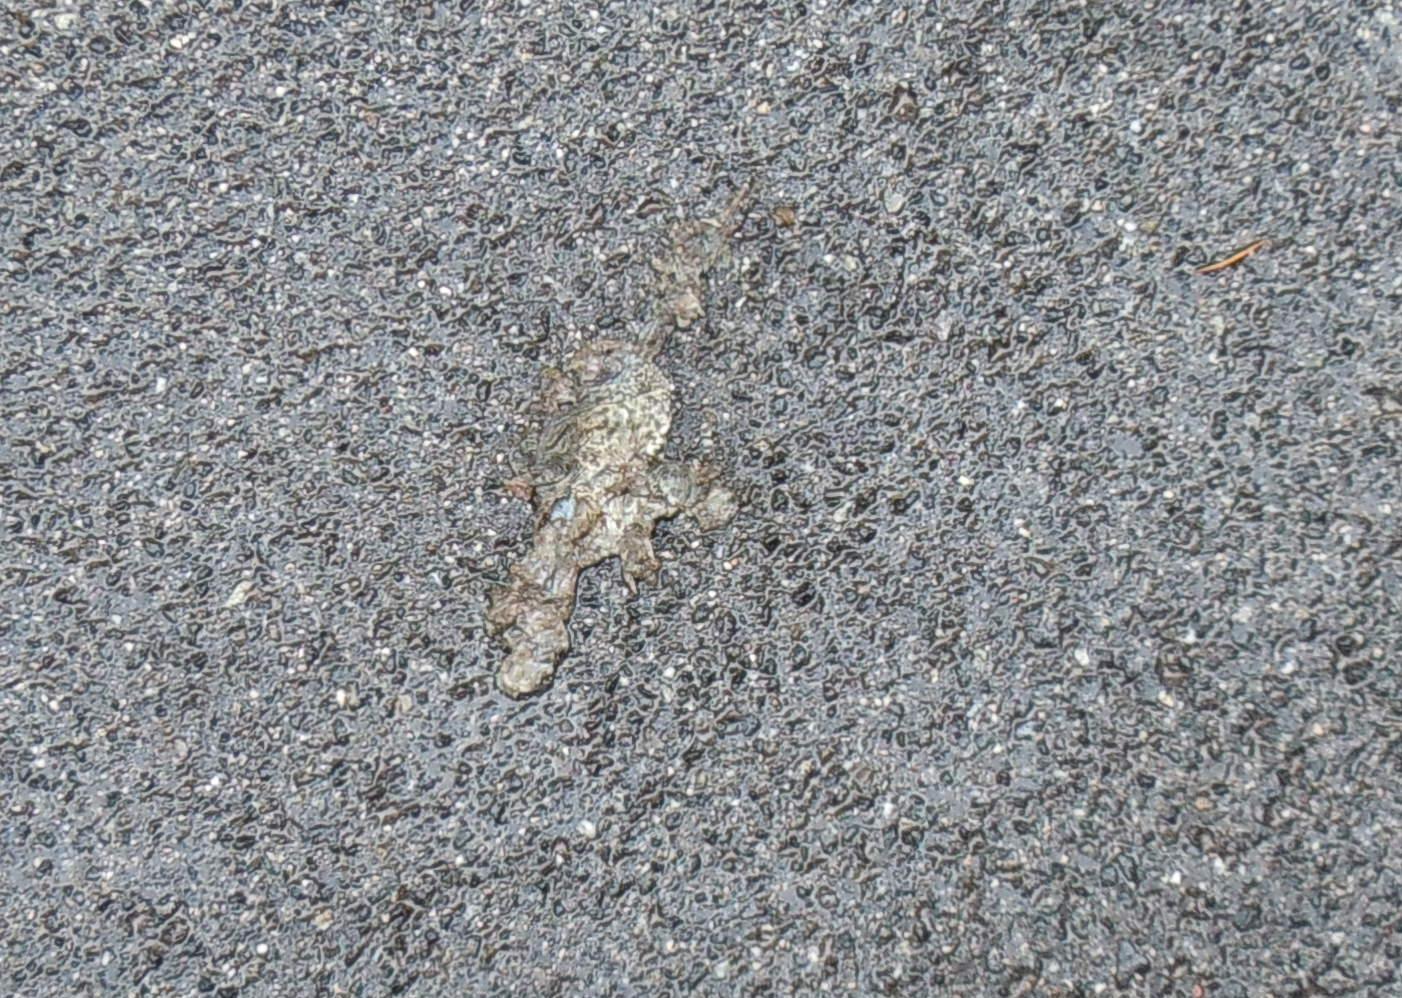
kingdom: Animalia
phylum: Chordata
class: Amphibia
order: Anura
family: Bufonidae
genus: Bufo
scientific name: Bufo bufo
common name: Common toad
